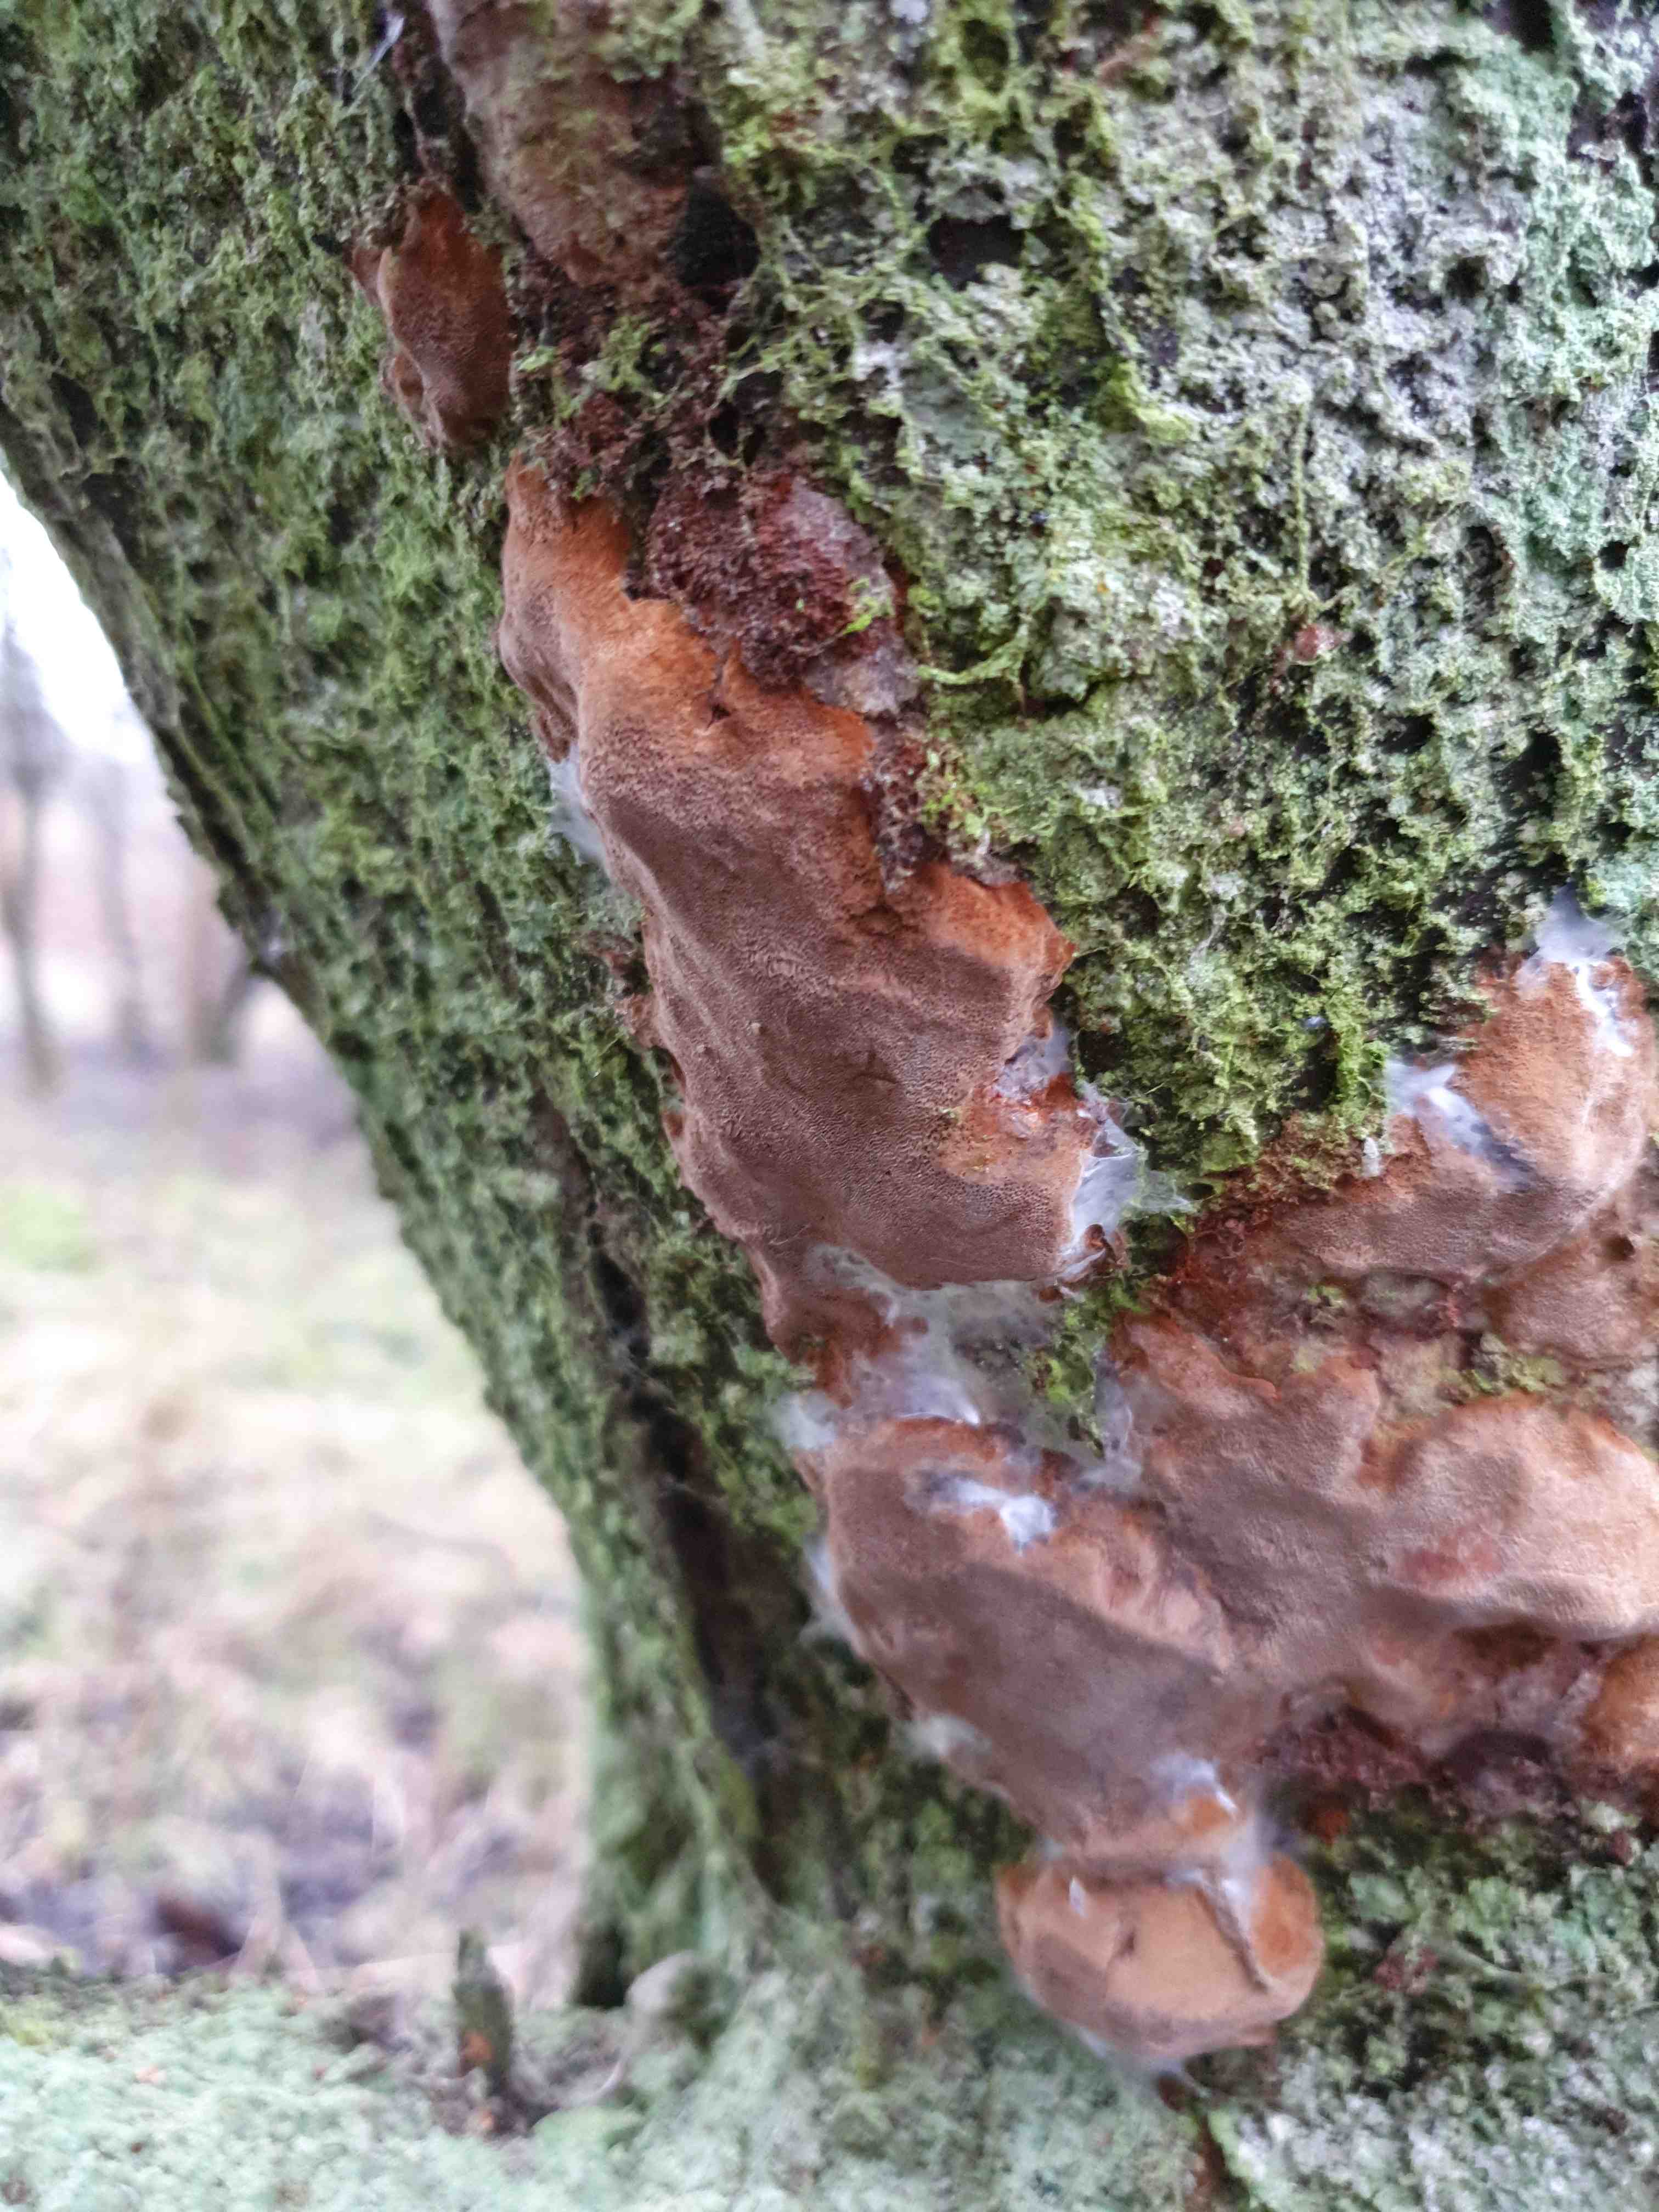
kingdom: Fungi
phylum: Basidiomycota
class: Agaricomycetes
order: Hymenochaetales
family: Hymenochaetaceae
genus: Phellinus
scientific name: Phellinus pomaceus
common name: blomme-ildporesvamp
